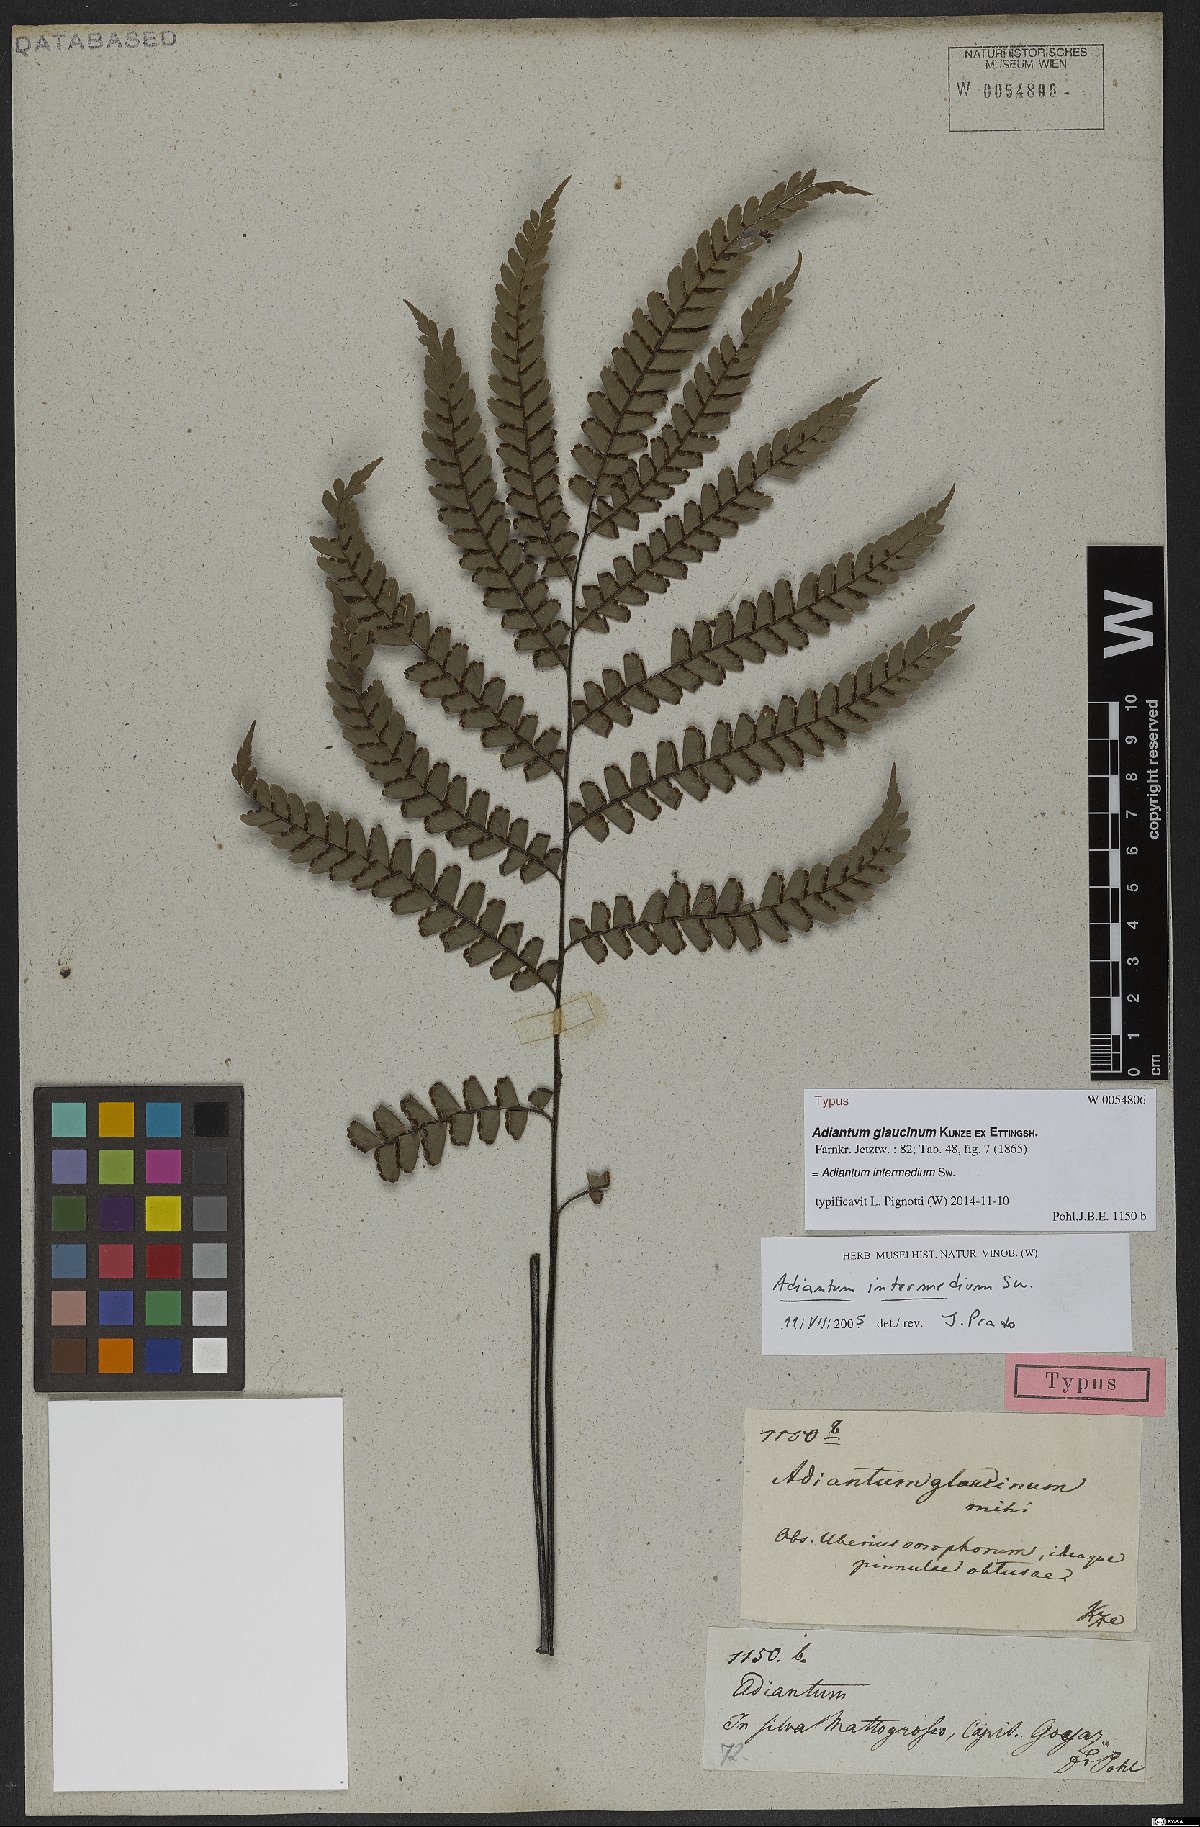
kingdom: Plantae
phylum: Tracheophyta
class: Polypodiopsida
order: Polypodiales
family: Pteridaceae
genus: Adiantum
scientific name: Adiantum intermedium
